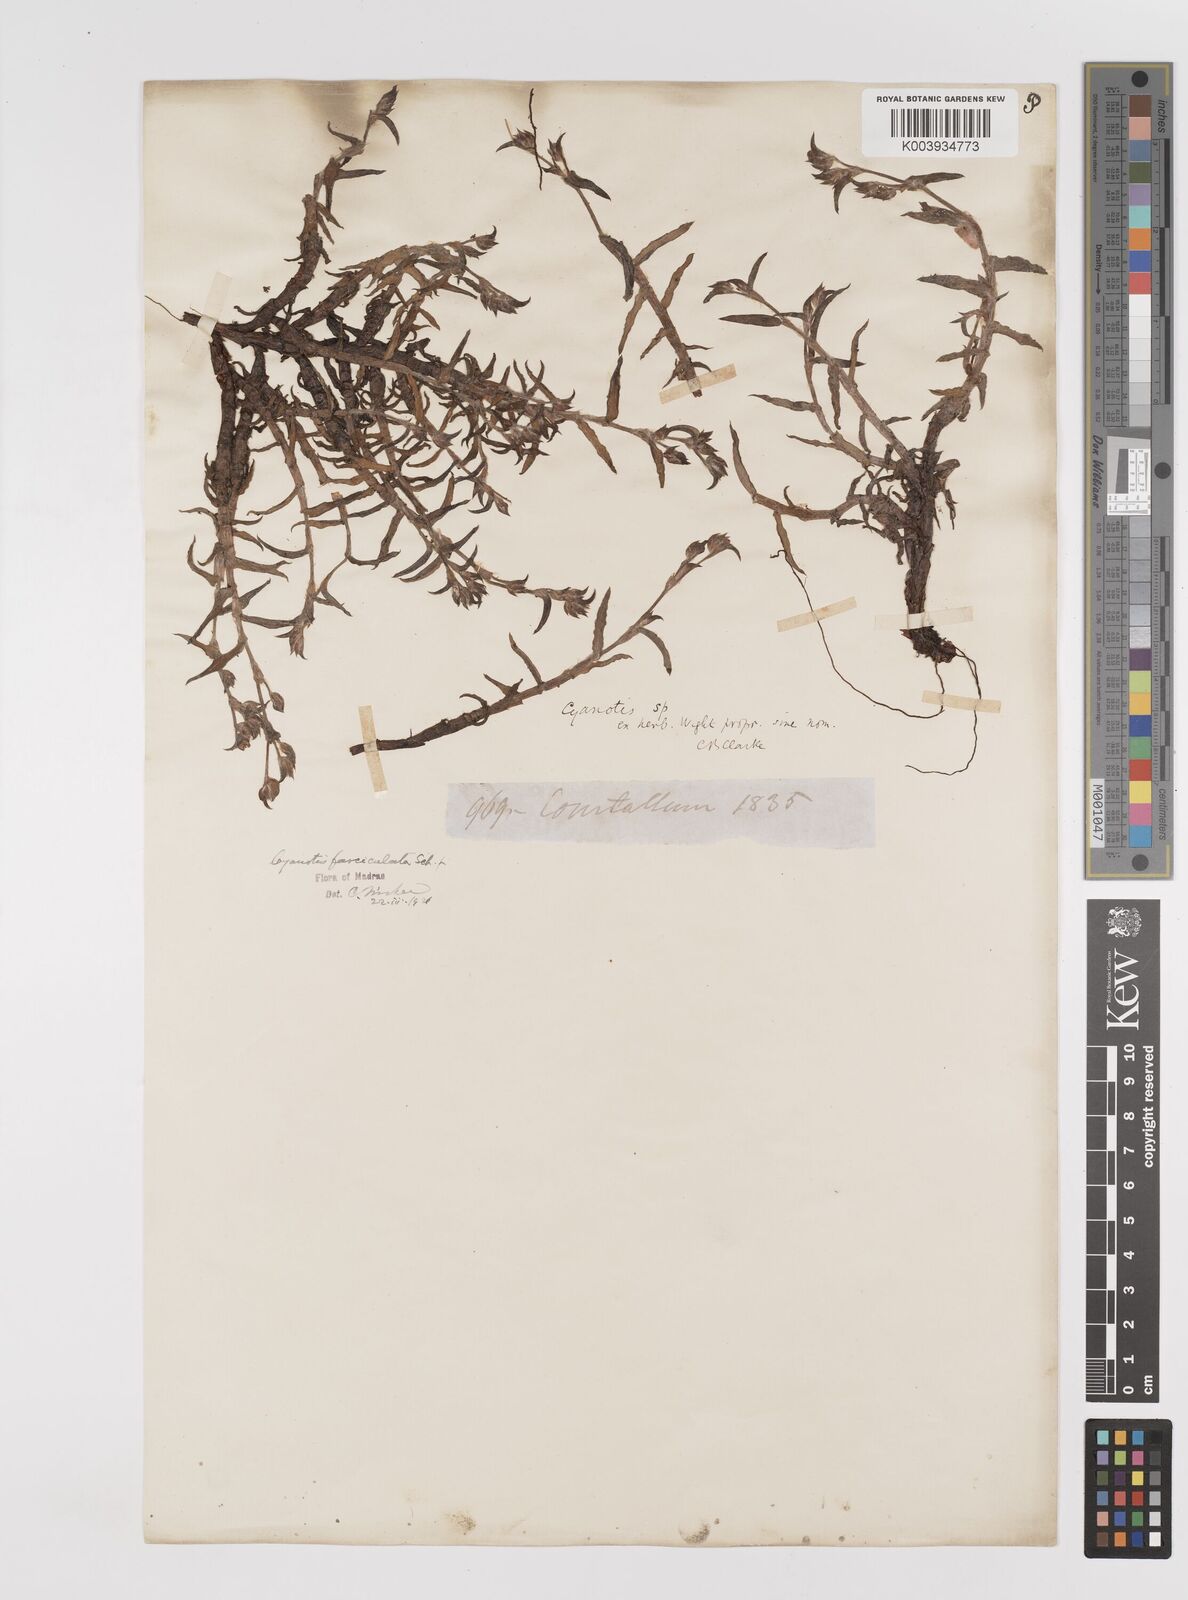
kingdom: Plantae
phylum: Tracheophyta
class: Liliopsida
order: Commelinales
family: Commelinaceae
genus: Cyanotis
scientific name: Cyanotis fasciculata
